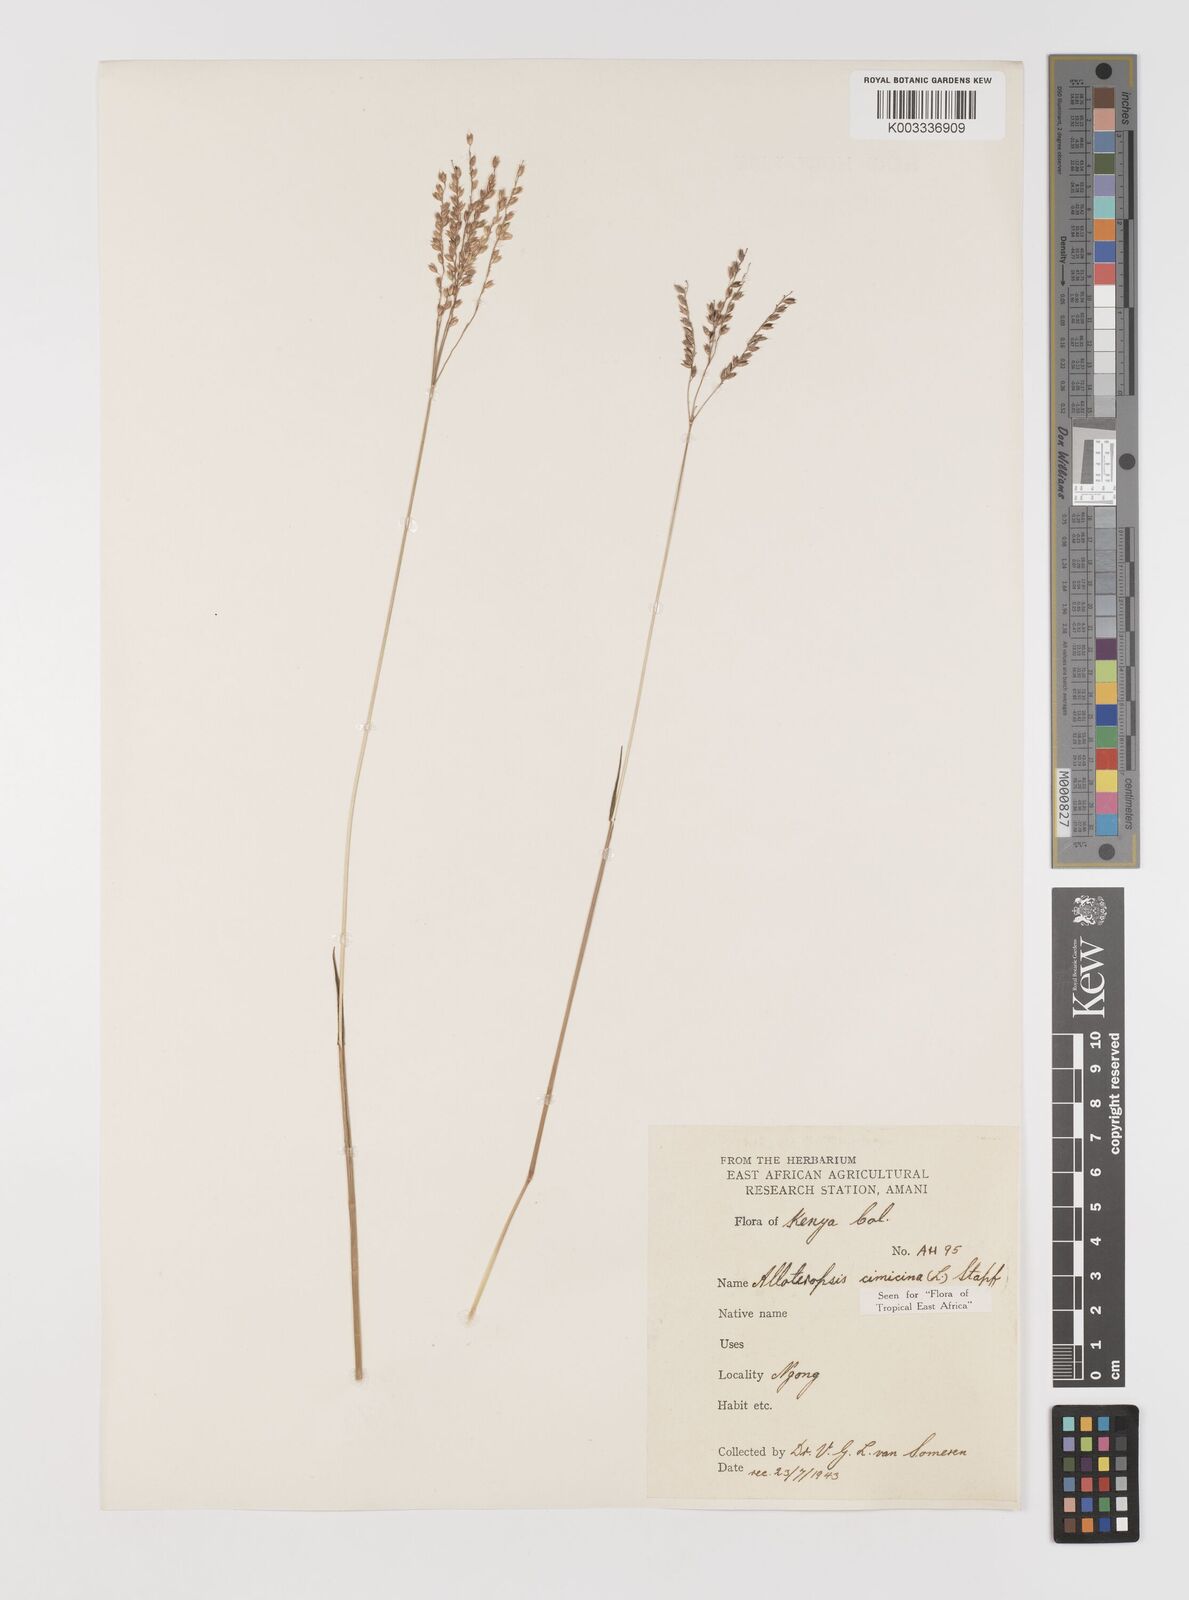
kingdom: Plantae
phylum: Tracheophyta
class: Liliopsida
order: Poales
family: Poaceae
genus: Alloteropsis
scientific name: Alloteropsis cimicina
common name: Summergrass
